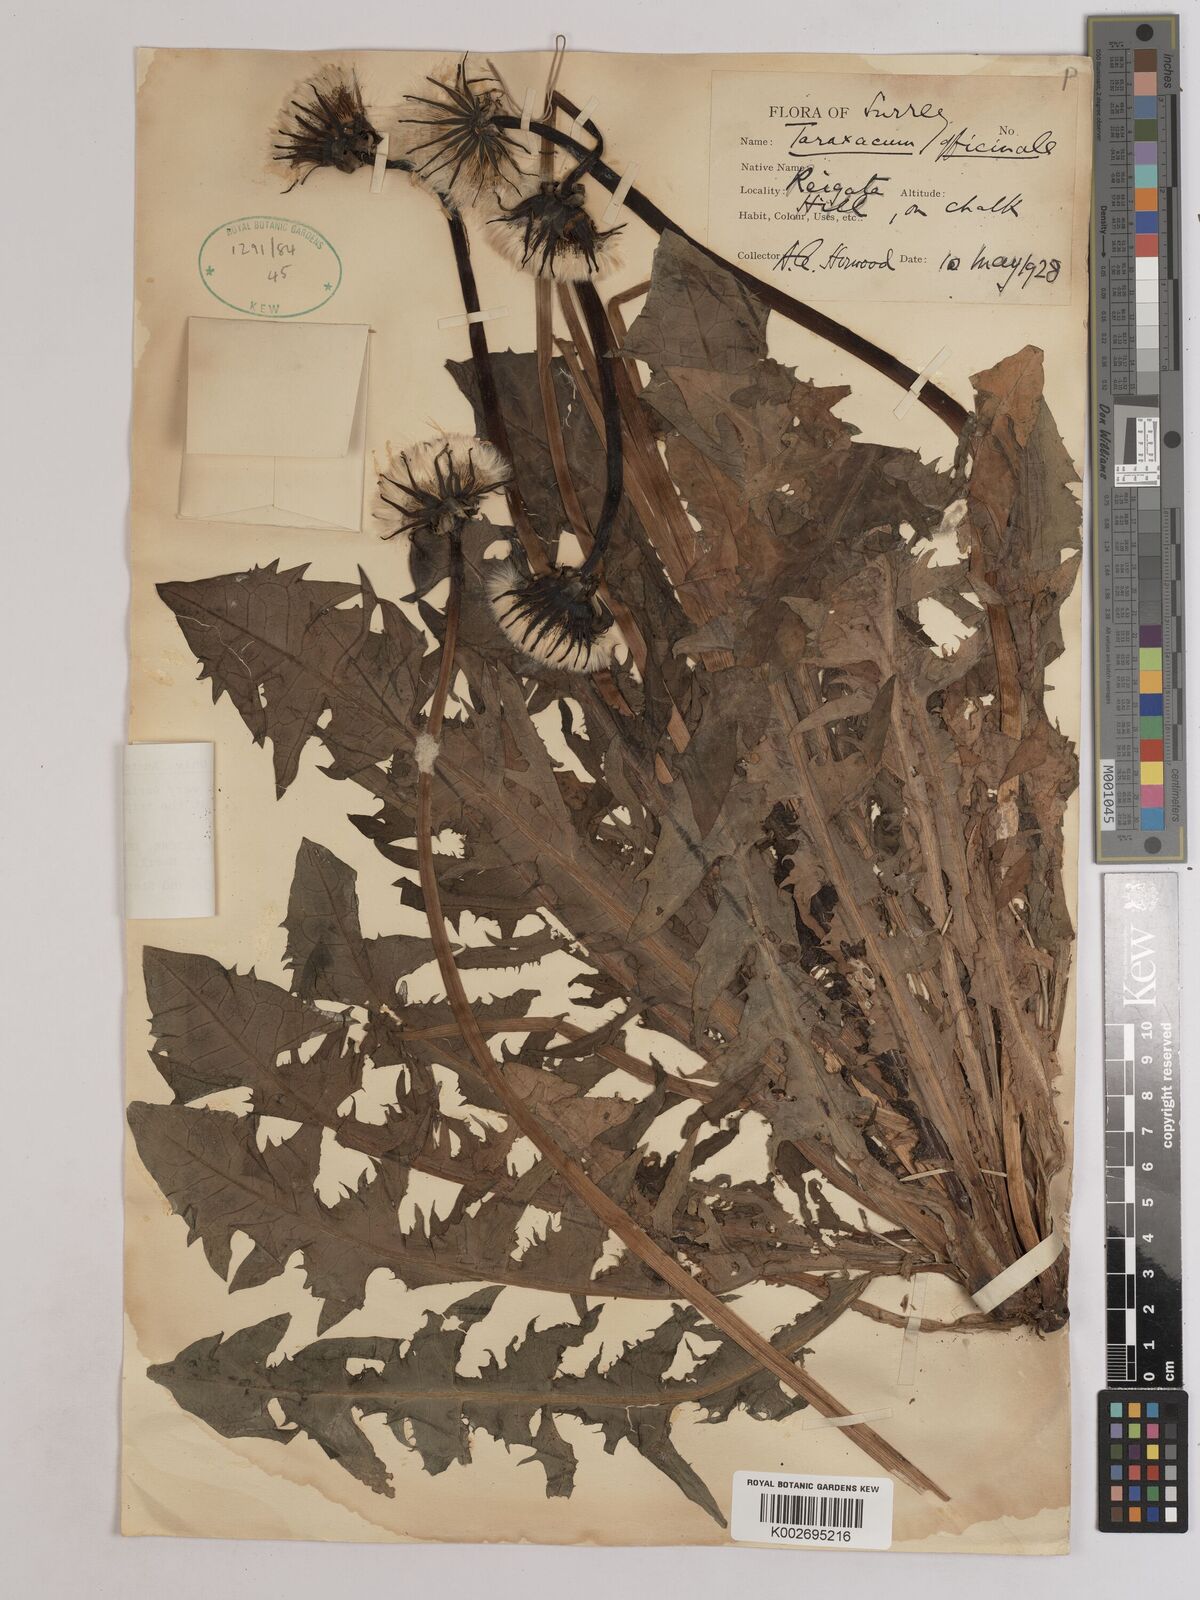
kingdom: Plantae
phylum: Tracheophyta
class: Magnoliopsida
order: Asterales
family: Asteraceae
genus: Taraxacum
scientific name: Taraxacum officinale
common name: Common dandelion
